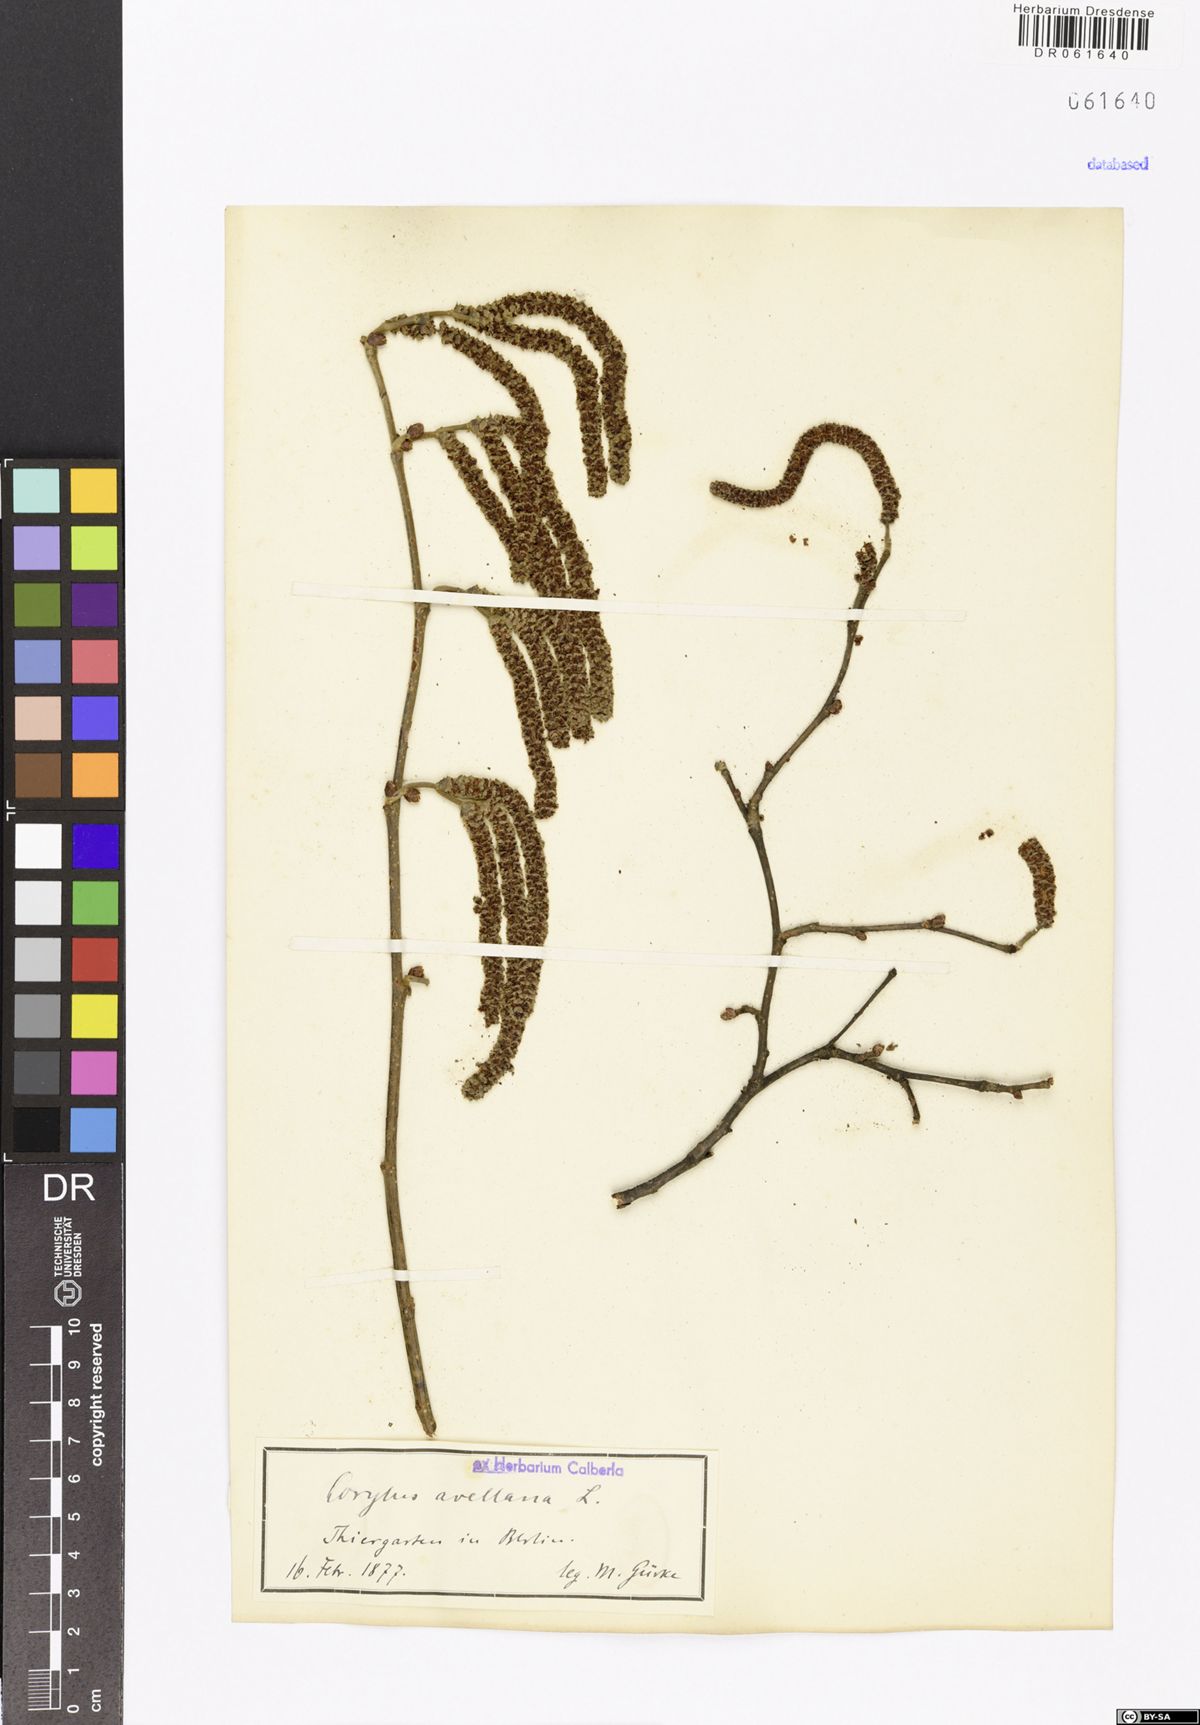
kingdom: Plantae
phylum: Tracheophyta
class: Magnoliopsida
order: Fagales
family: Betulaceae
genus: Corylus
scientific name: Corylus avellana
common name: European hazel
